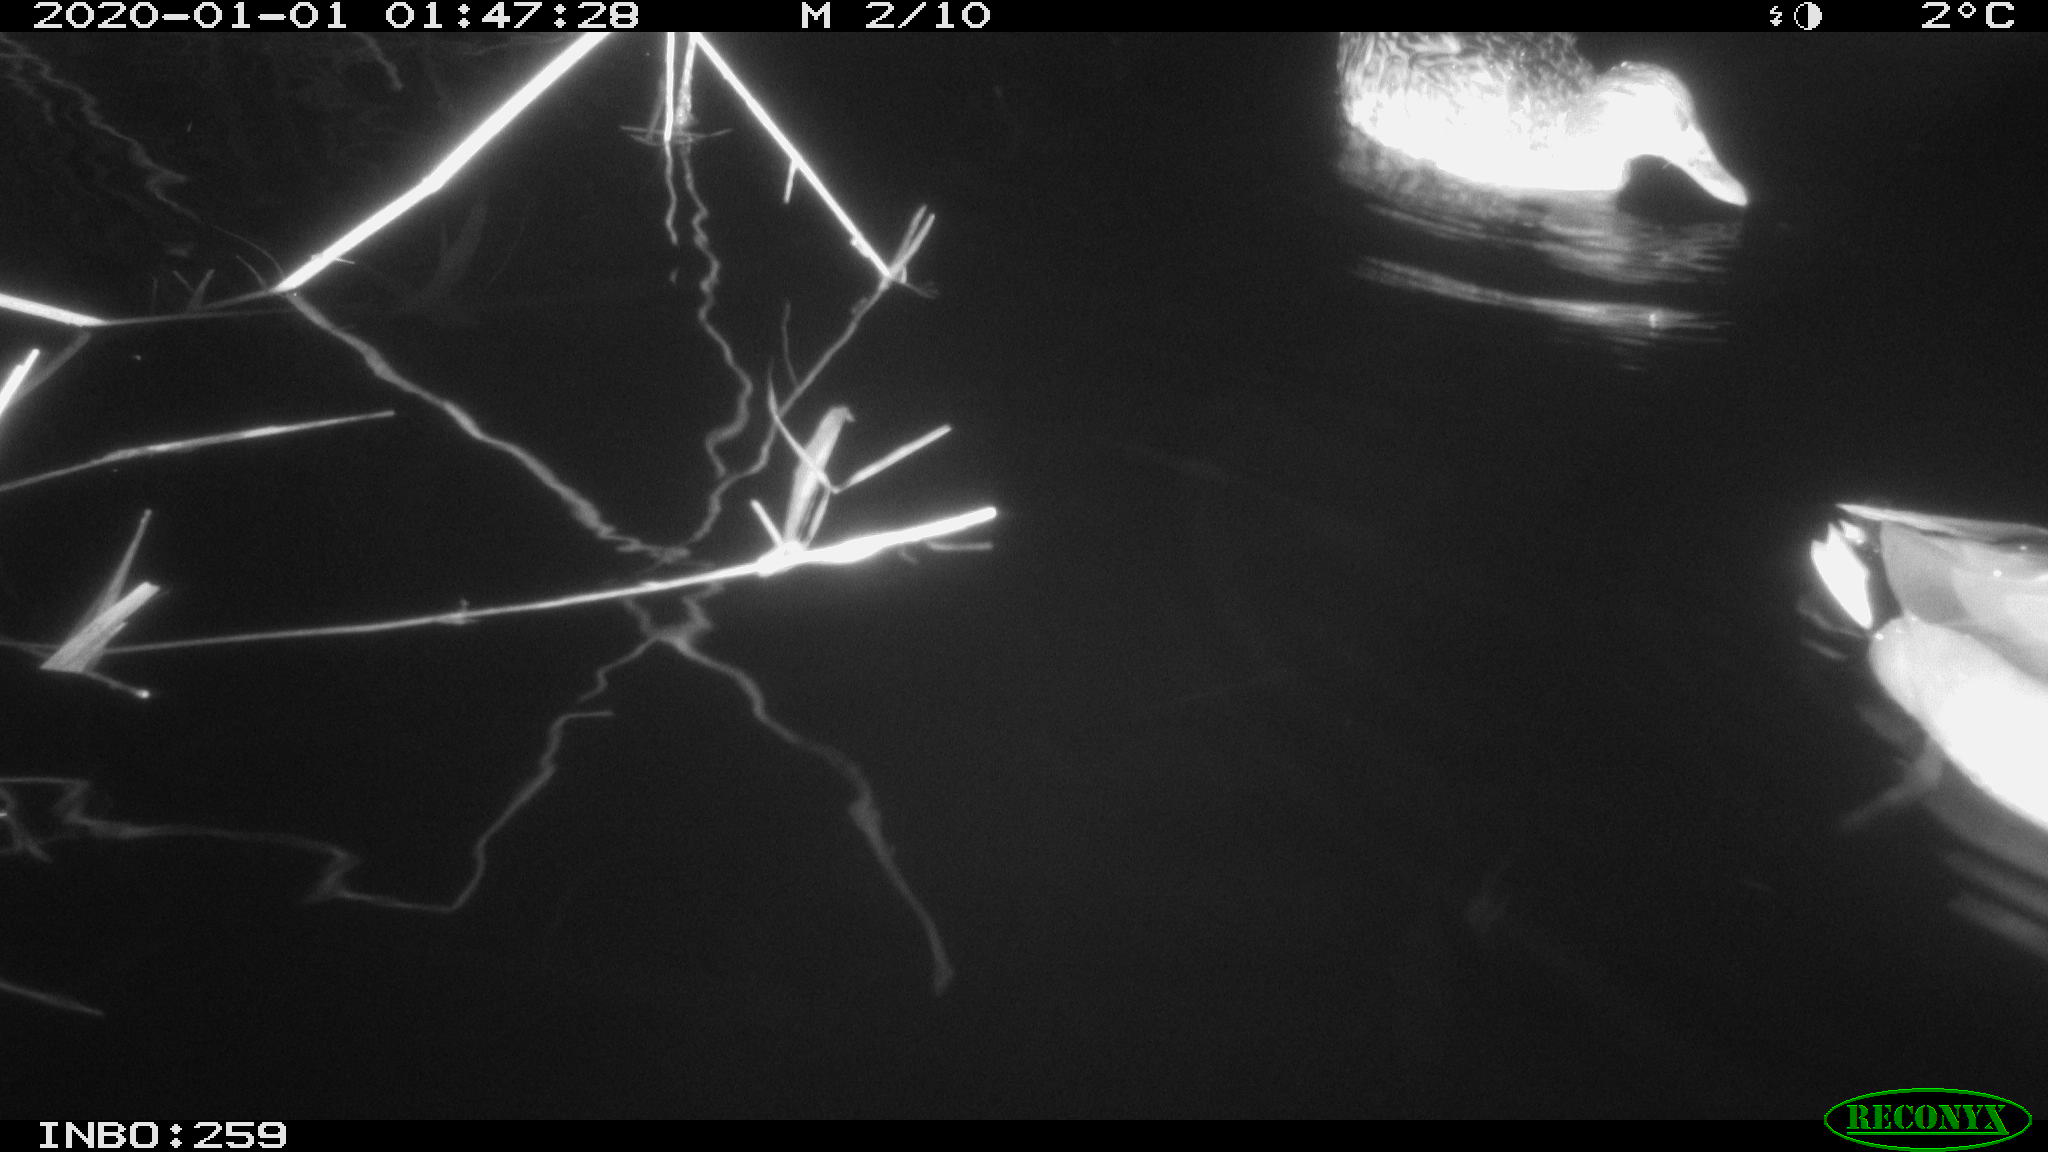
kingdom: Animalia
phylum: Chordata
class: Aves
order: Anseriformes
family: Anatidae
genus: Anas
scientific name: Anas platyrhynchos
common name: Mallard
